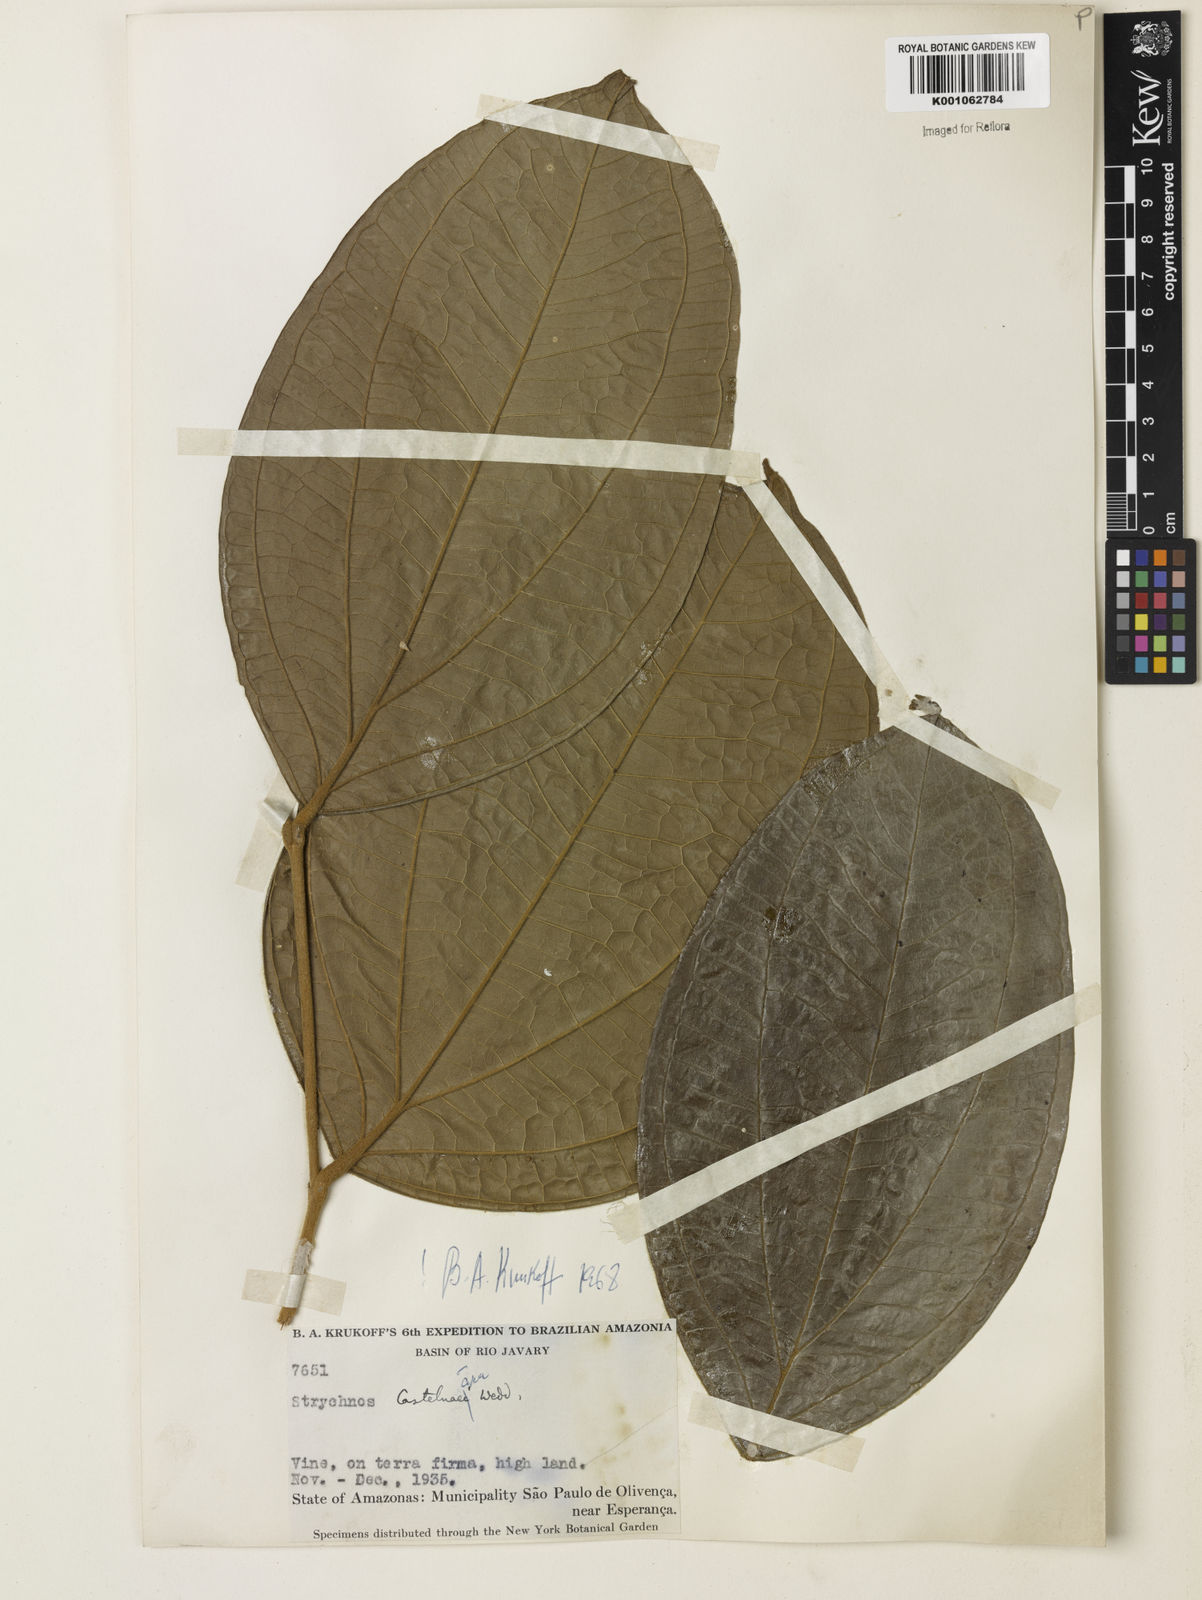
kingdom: Plantae
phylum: Tracheophyta
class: Magnoliopsida
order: Gentianales
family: Loganiaceae
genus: Strychnos
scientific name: Strychnos
